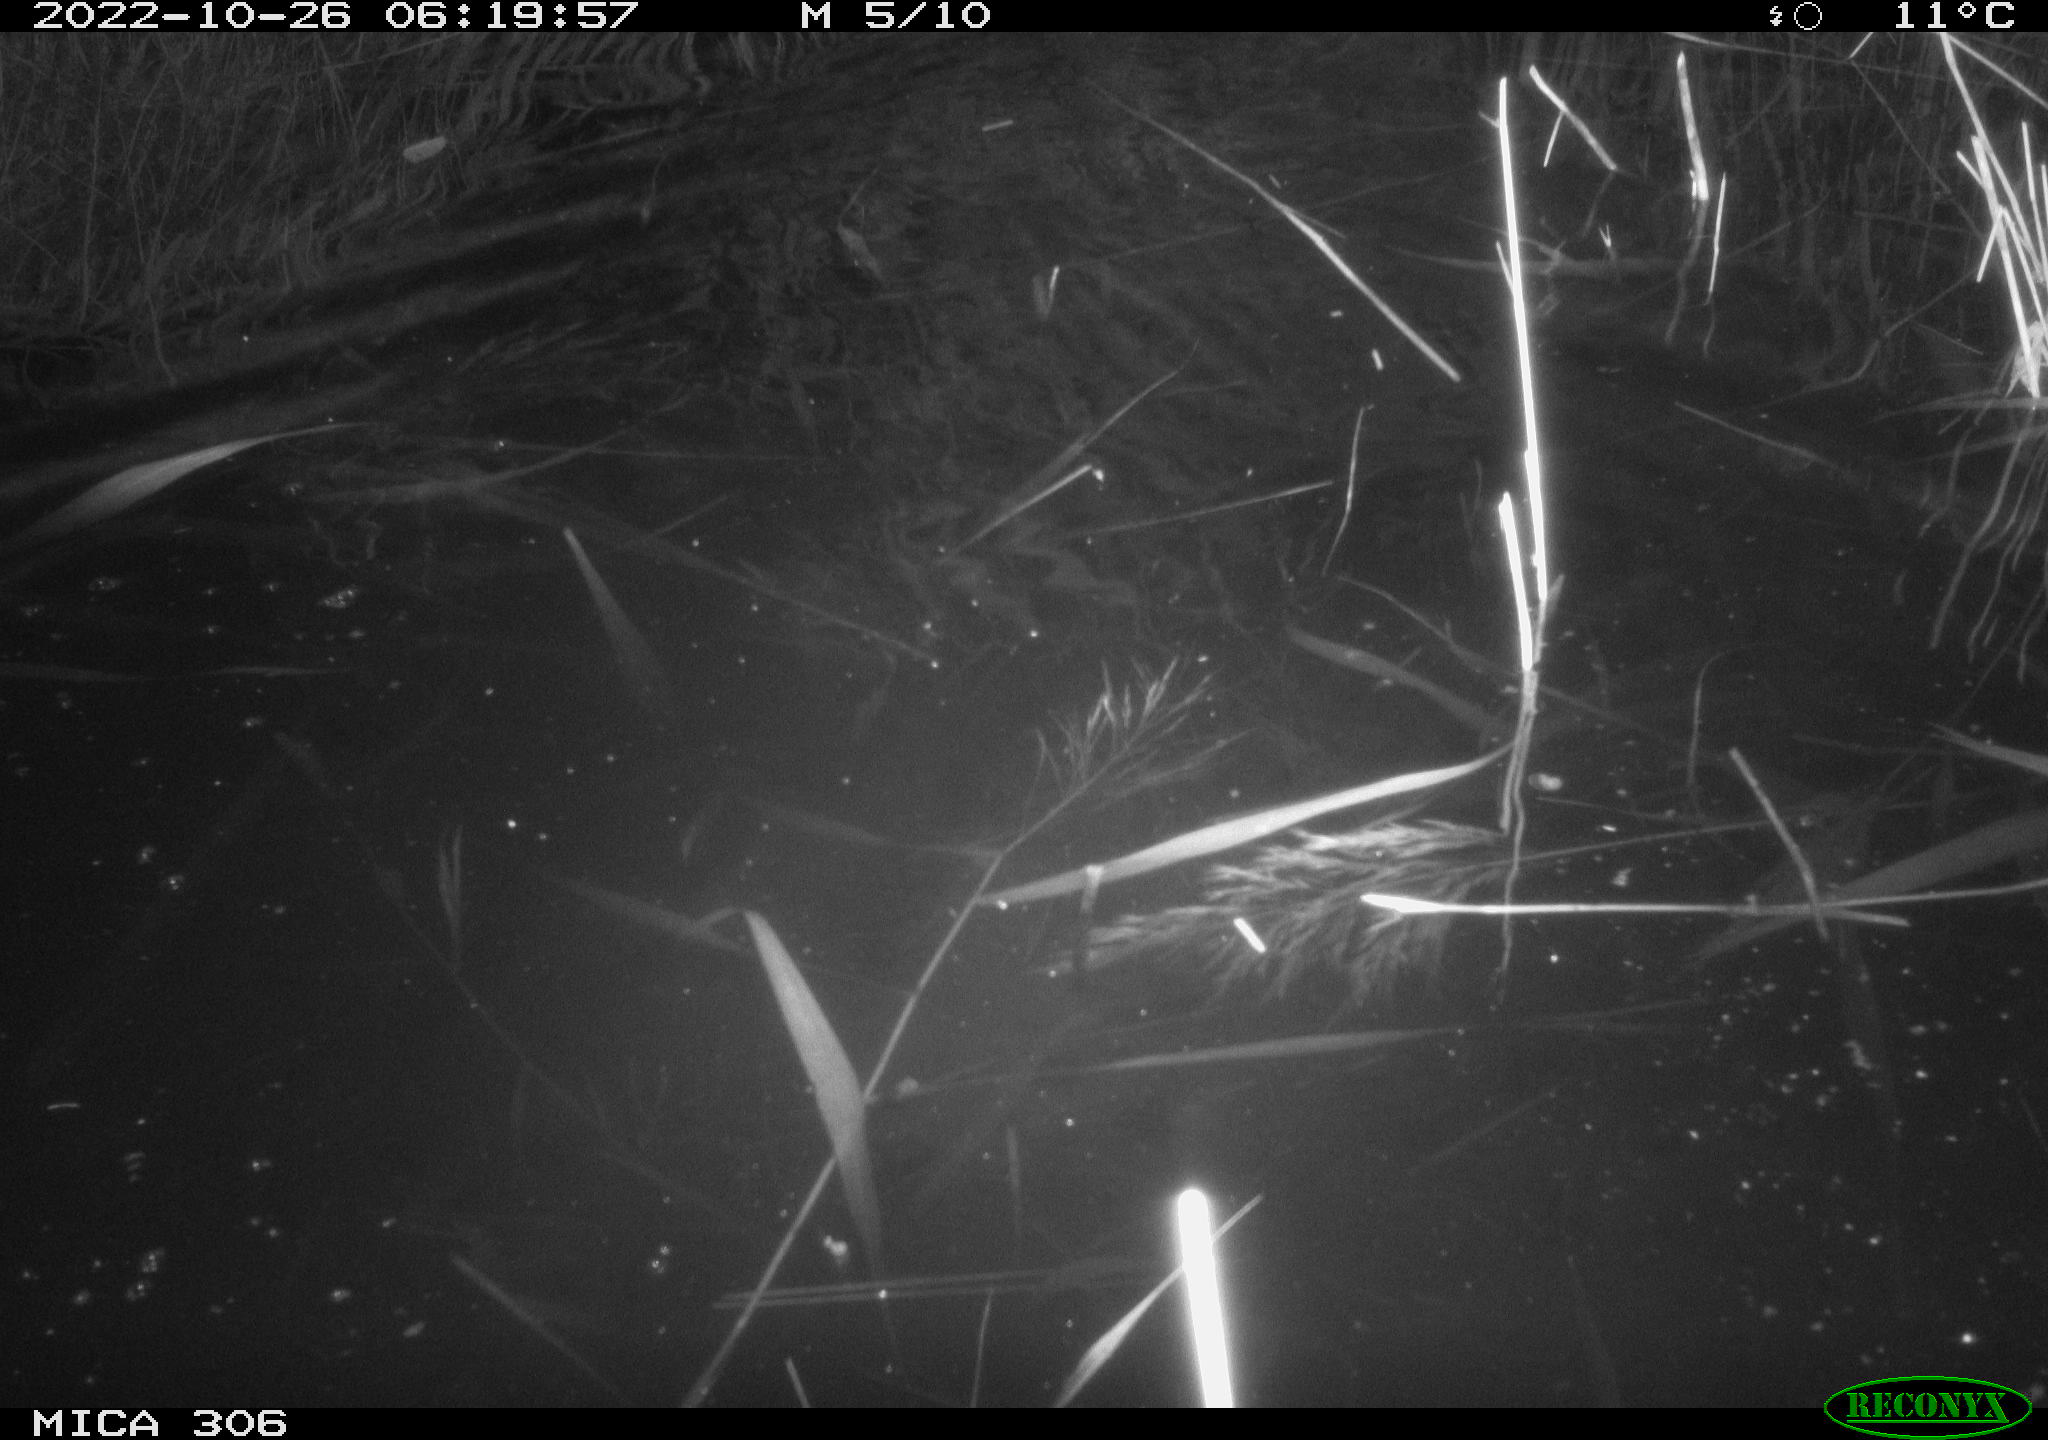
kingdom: Animalia
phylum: Chordata
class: Mammalia
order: Rodentia
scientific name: Rodentia
